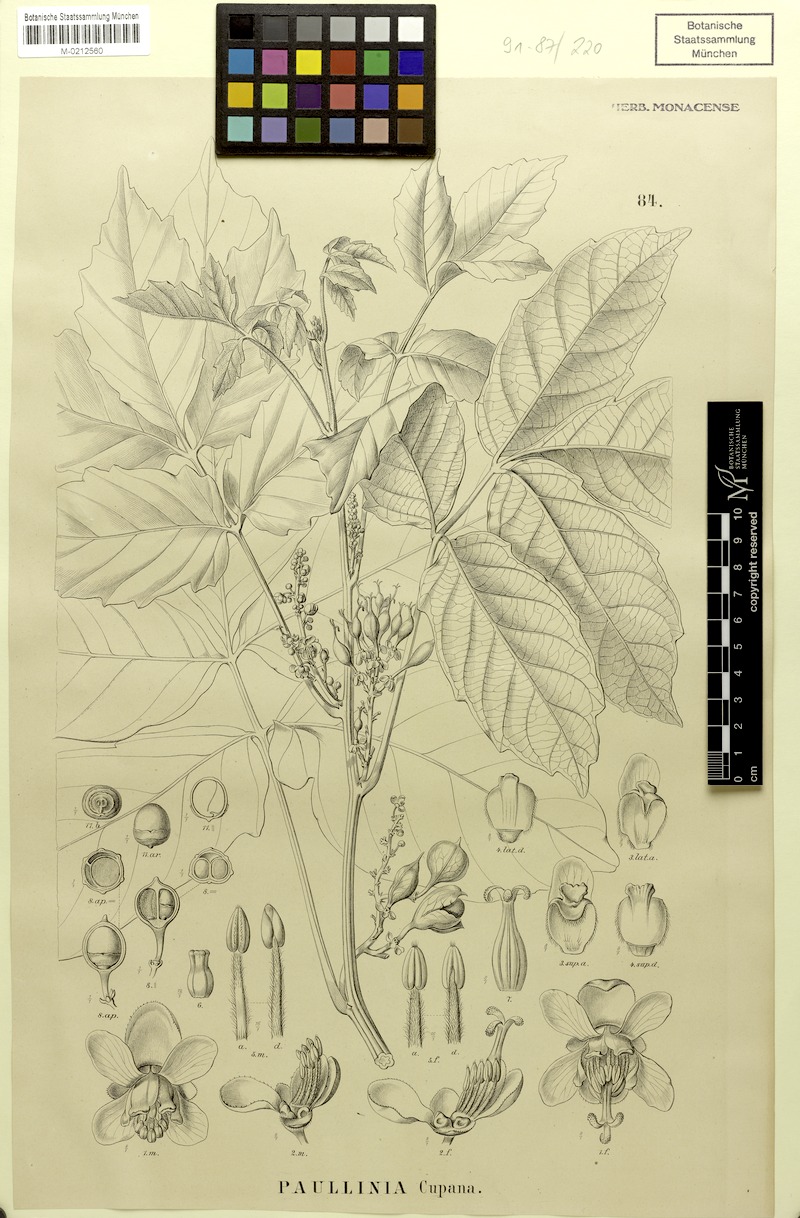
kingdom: Plantae
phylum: Tracheophyta
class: Magnoliopsida
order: Sapindales
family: Sapindaceae
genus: Paullinia
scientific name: Paullinia cupana
